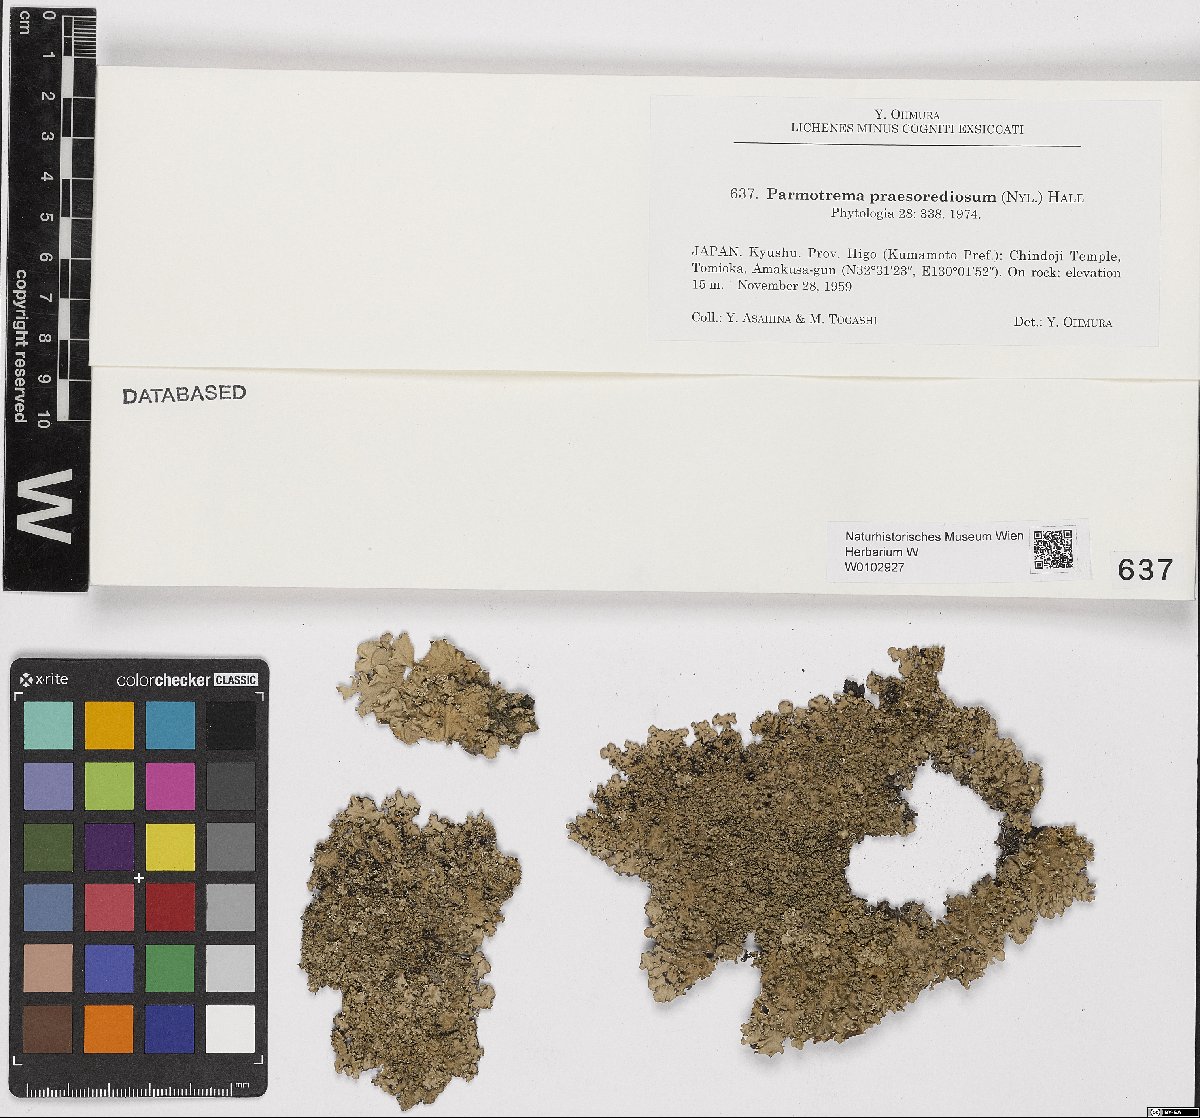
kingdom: Fungi
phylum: Ascomycota
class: Lecanoromycetes
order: Lecanorales
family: Parmeliaceae
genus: Parmotrema
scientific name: Parmotrema praesorediosum
